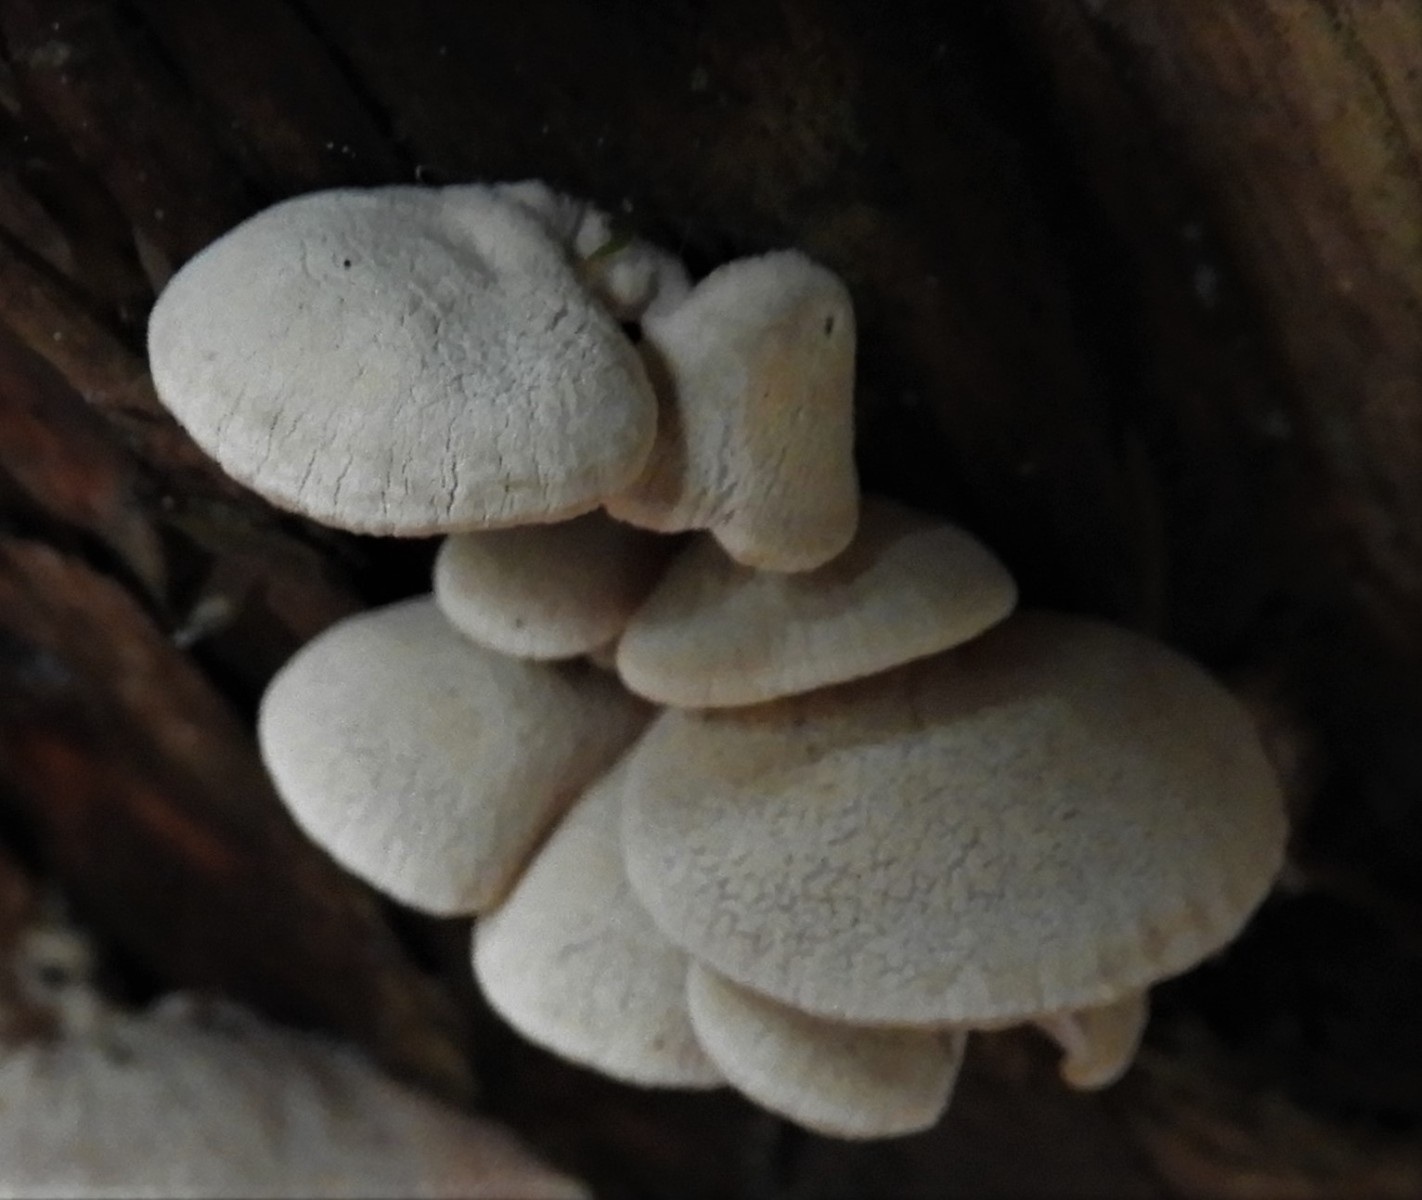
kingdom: Fungi
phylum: Basidiomycota
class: Agaricomycetes
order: Agaricales
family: Mycenaceae
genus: Panellus
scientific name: Panellus stipticus
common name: kliddet epaulethat
